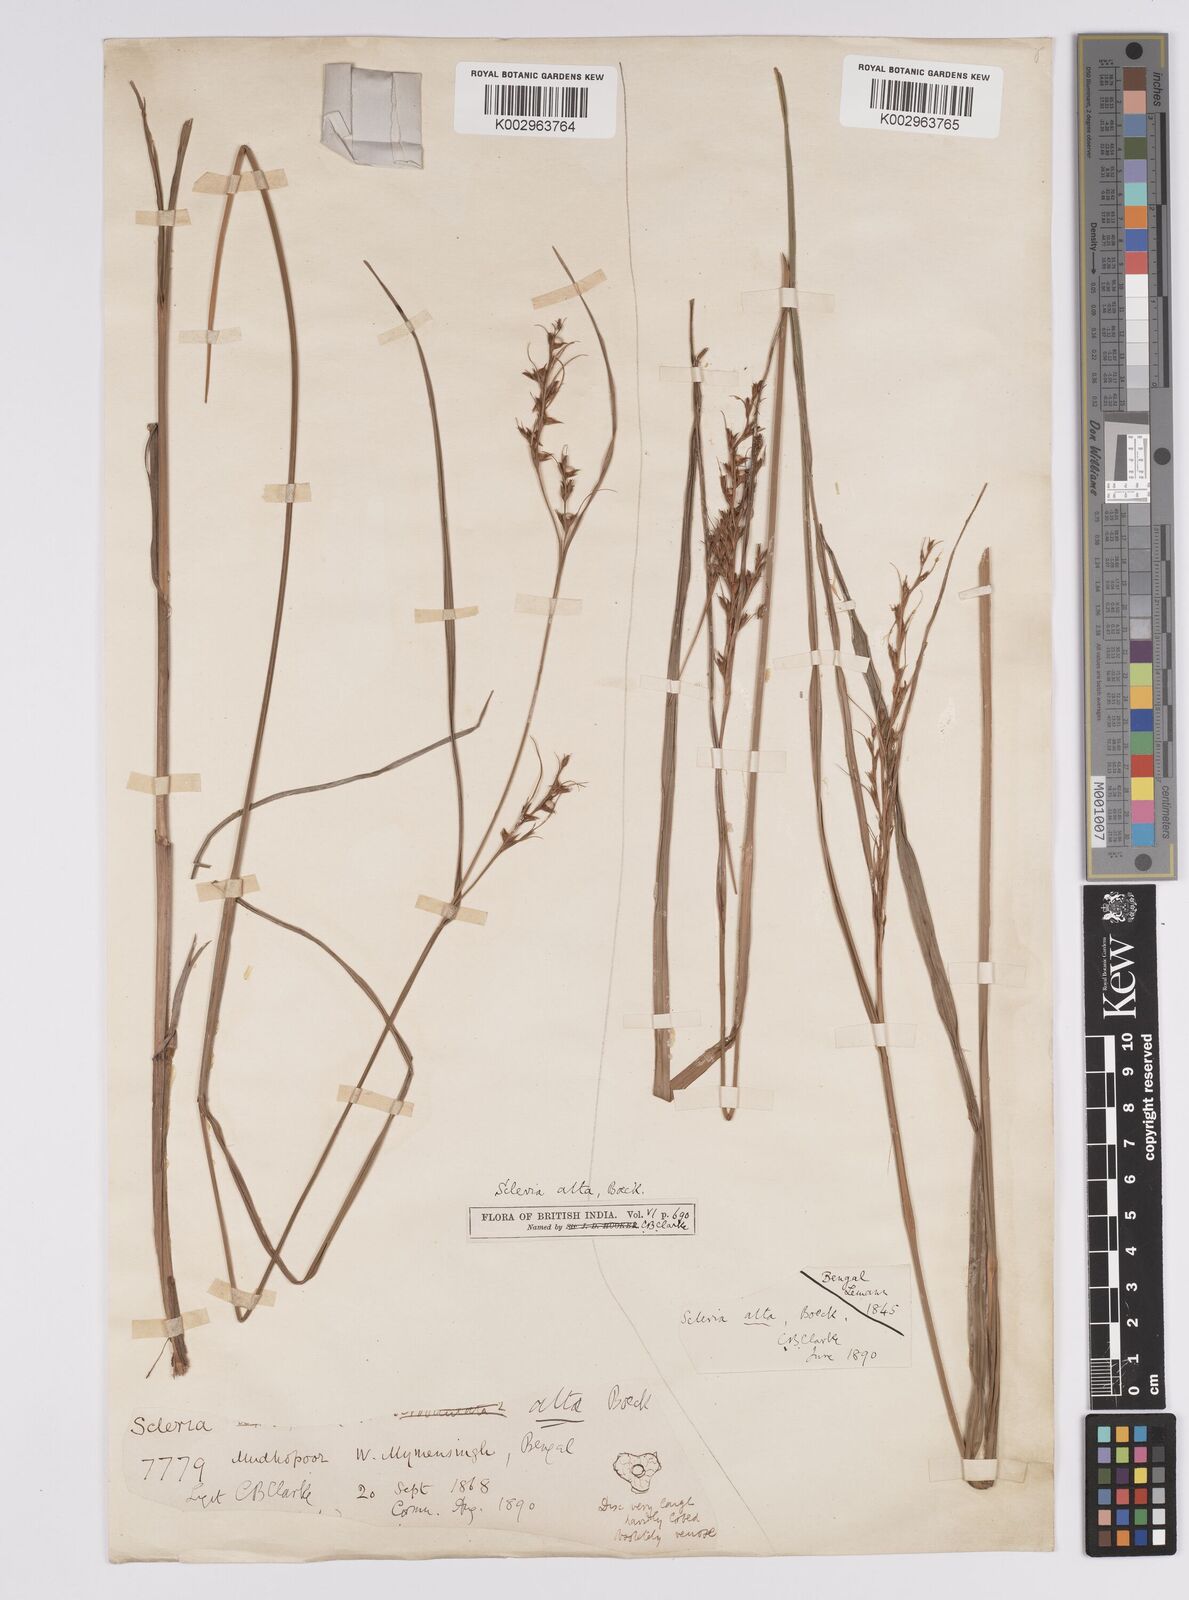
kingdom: Plantae
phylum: Tracheophyta
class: Liliopsida
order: Poales
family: Cyperaceae
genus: Scleria
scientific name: Scleria levis
